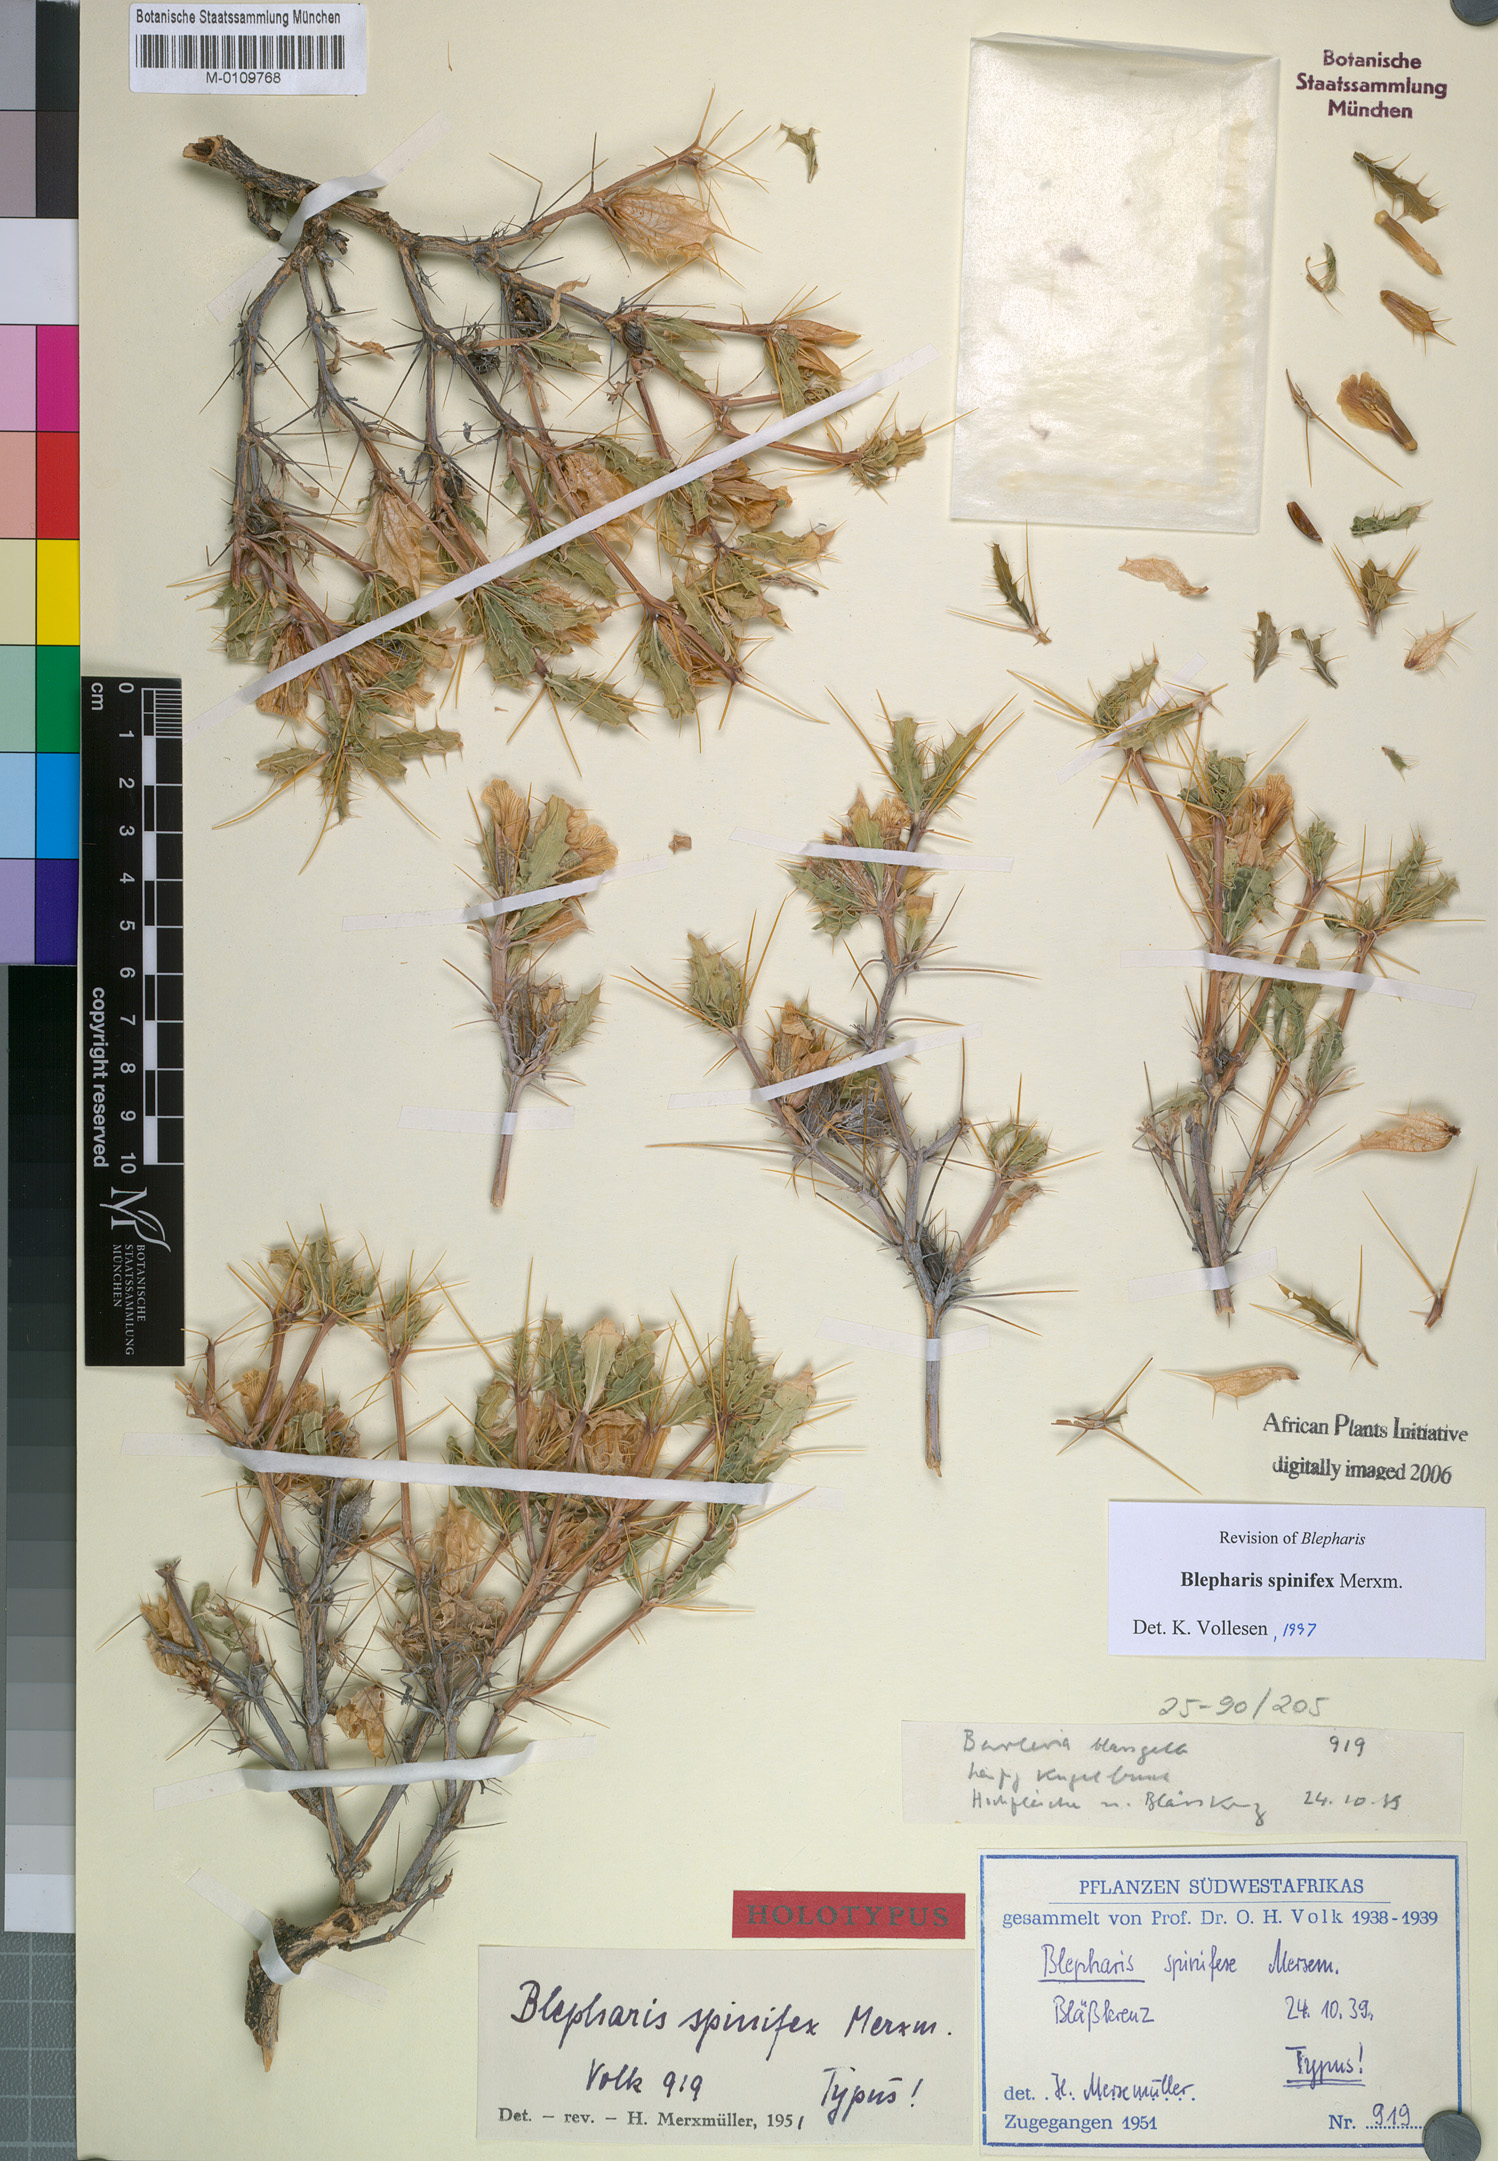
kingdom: Plantae
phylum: Tracheophyta
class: Magnoliopsida
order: Lamiales
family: Acanthaceae
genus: Blepharis
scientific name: Blepharis spinifex
